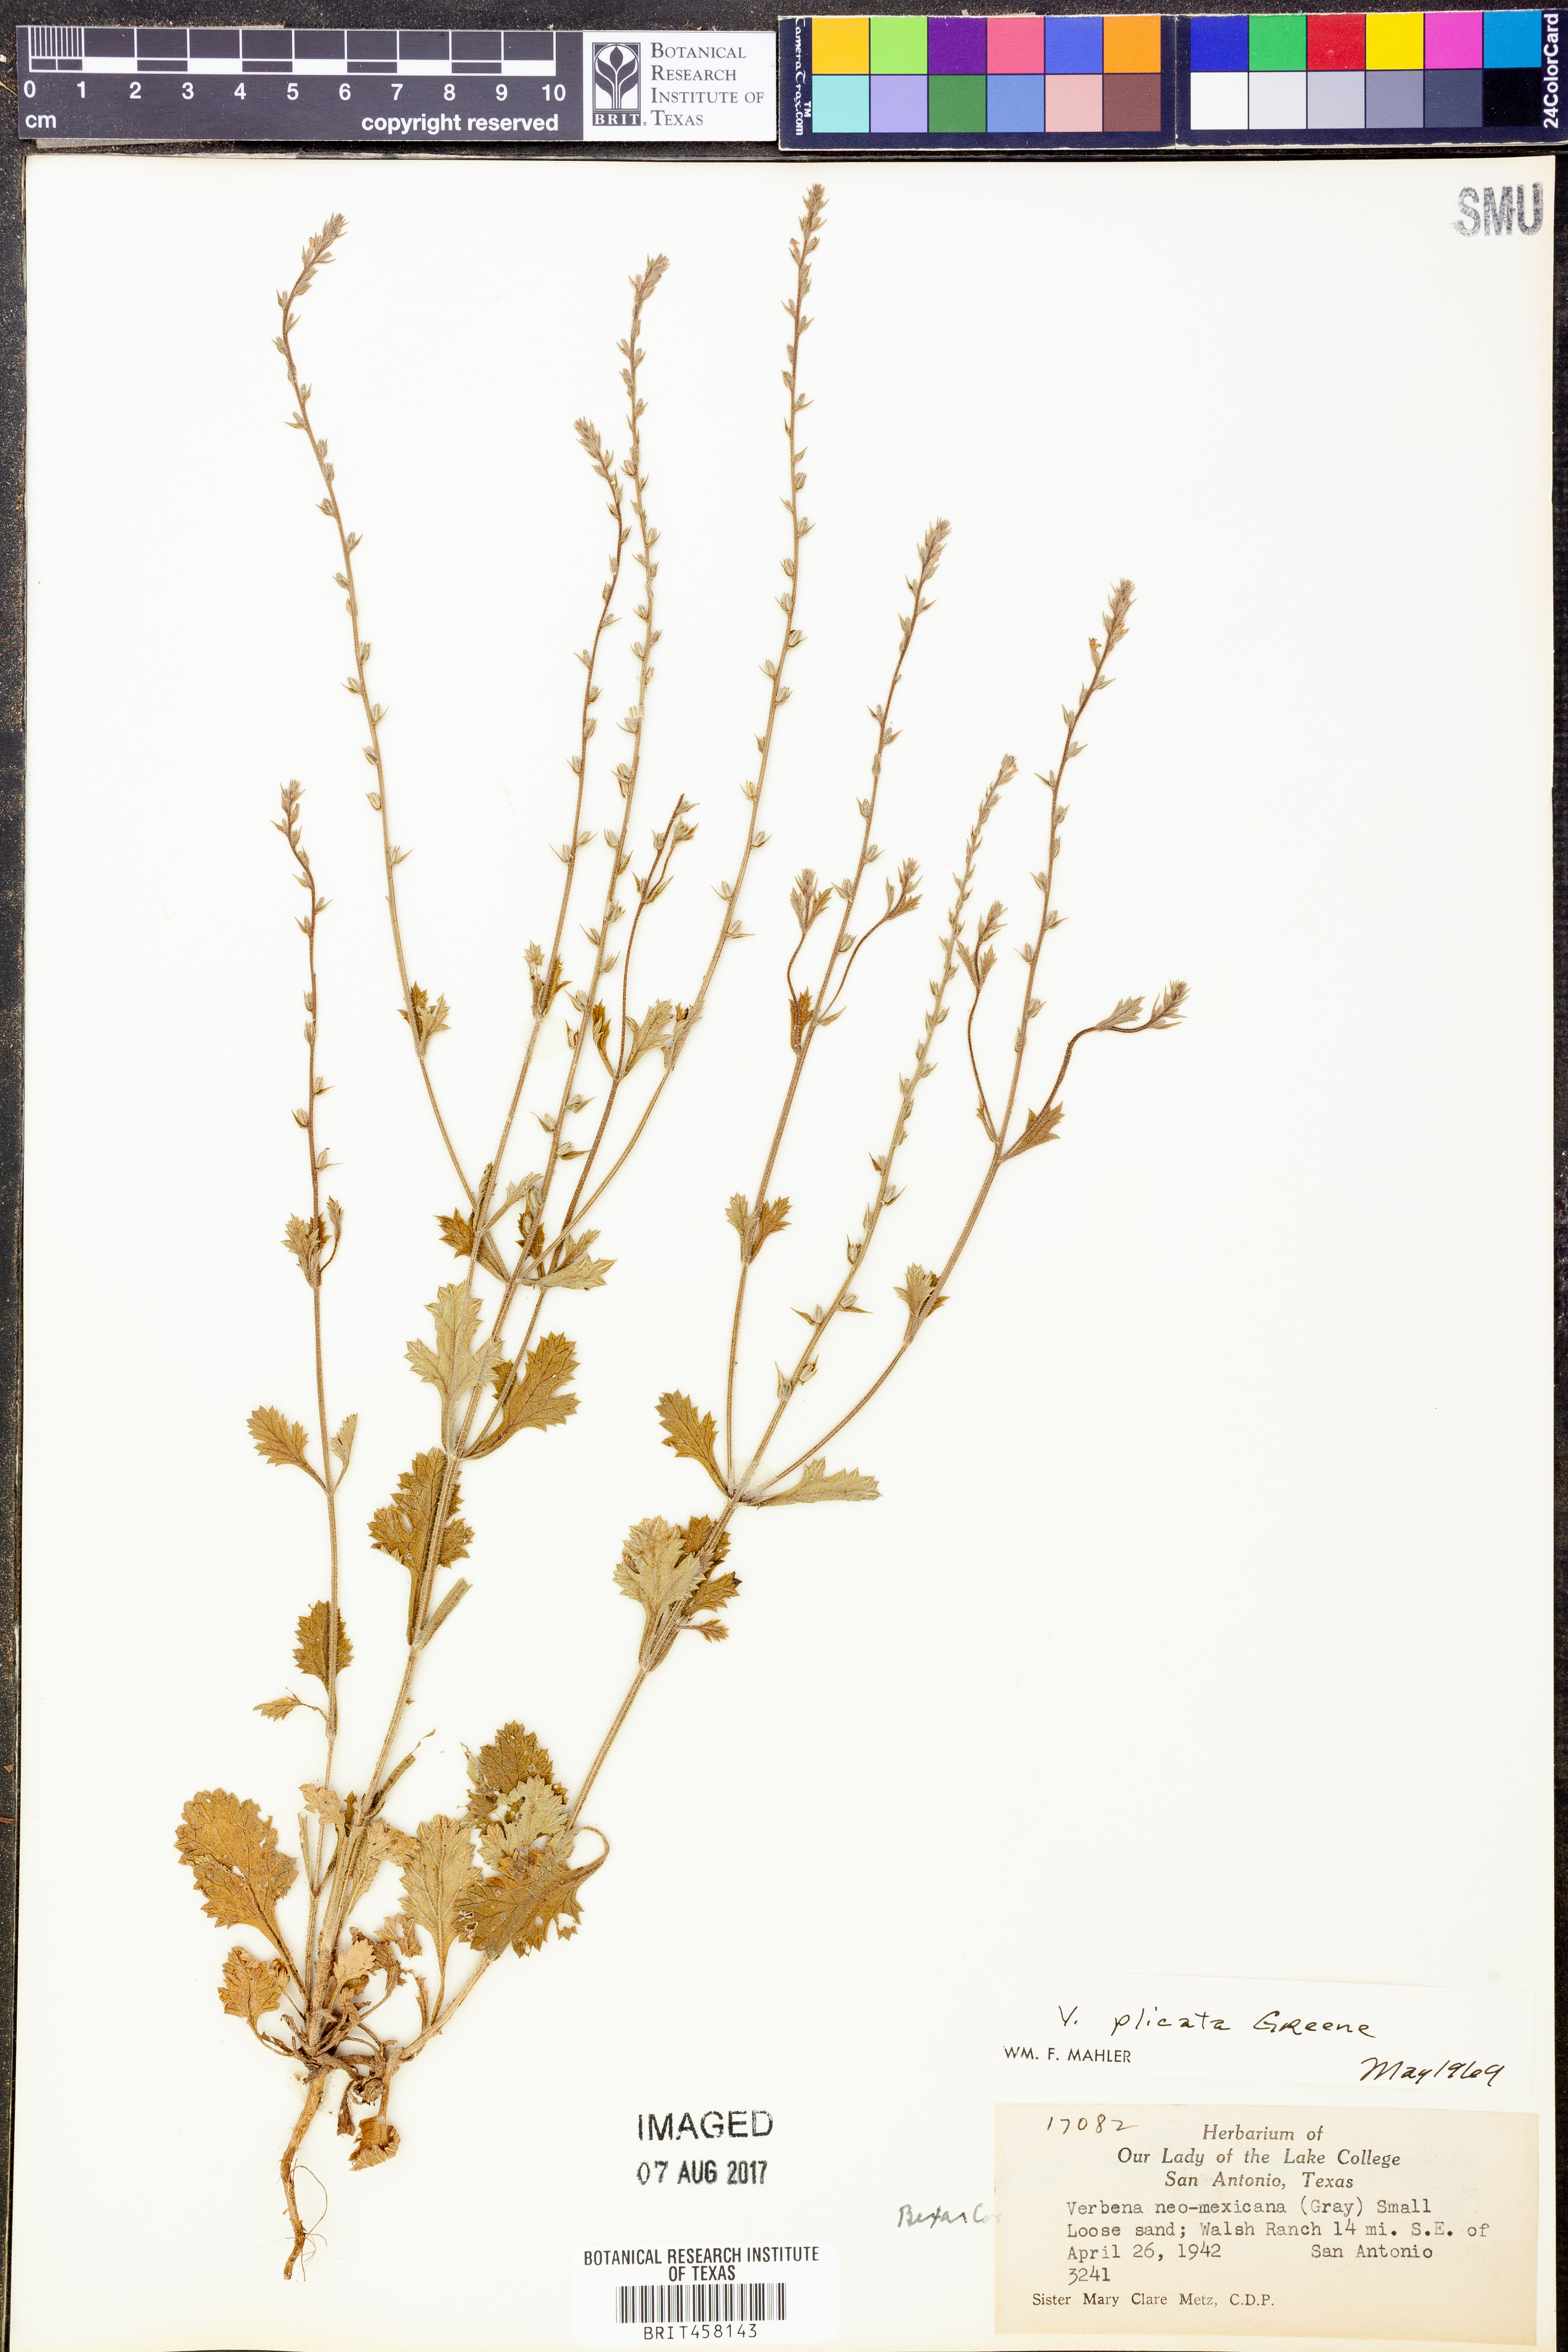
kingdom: Plantae
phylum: Tracheophyta
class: Magnoliopsida
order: Lamiales
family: Verbenaceae
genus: Verbena
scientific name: Verbena plicata
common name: Fan-leaf vervain
